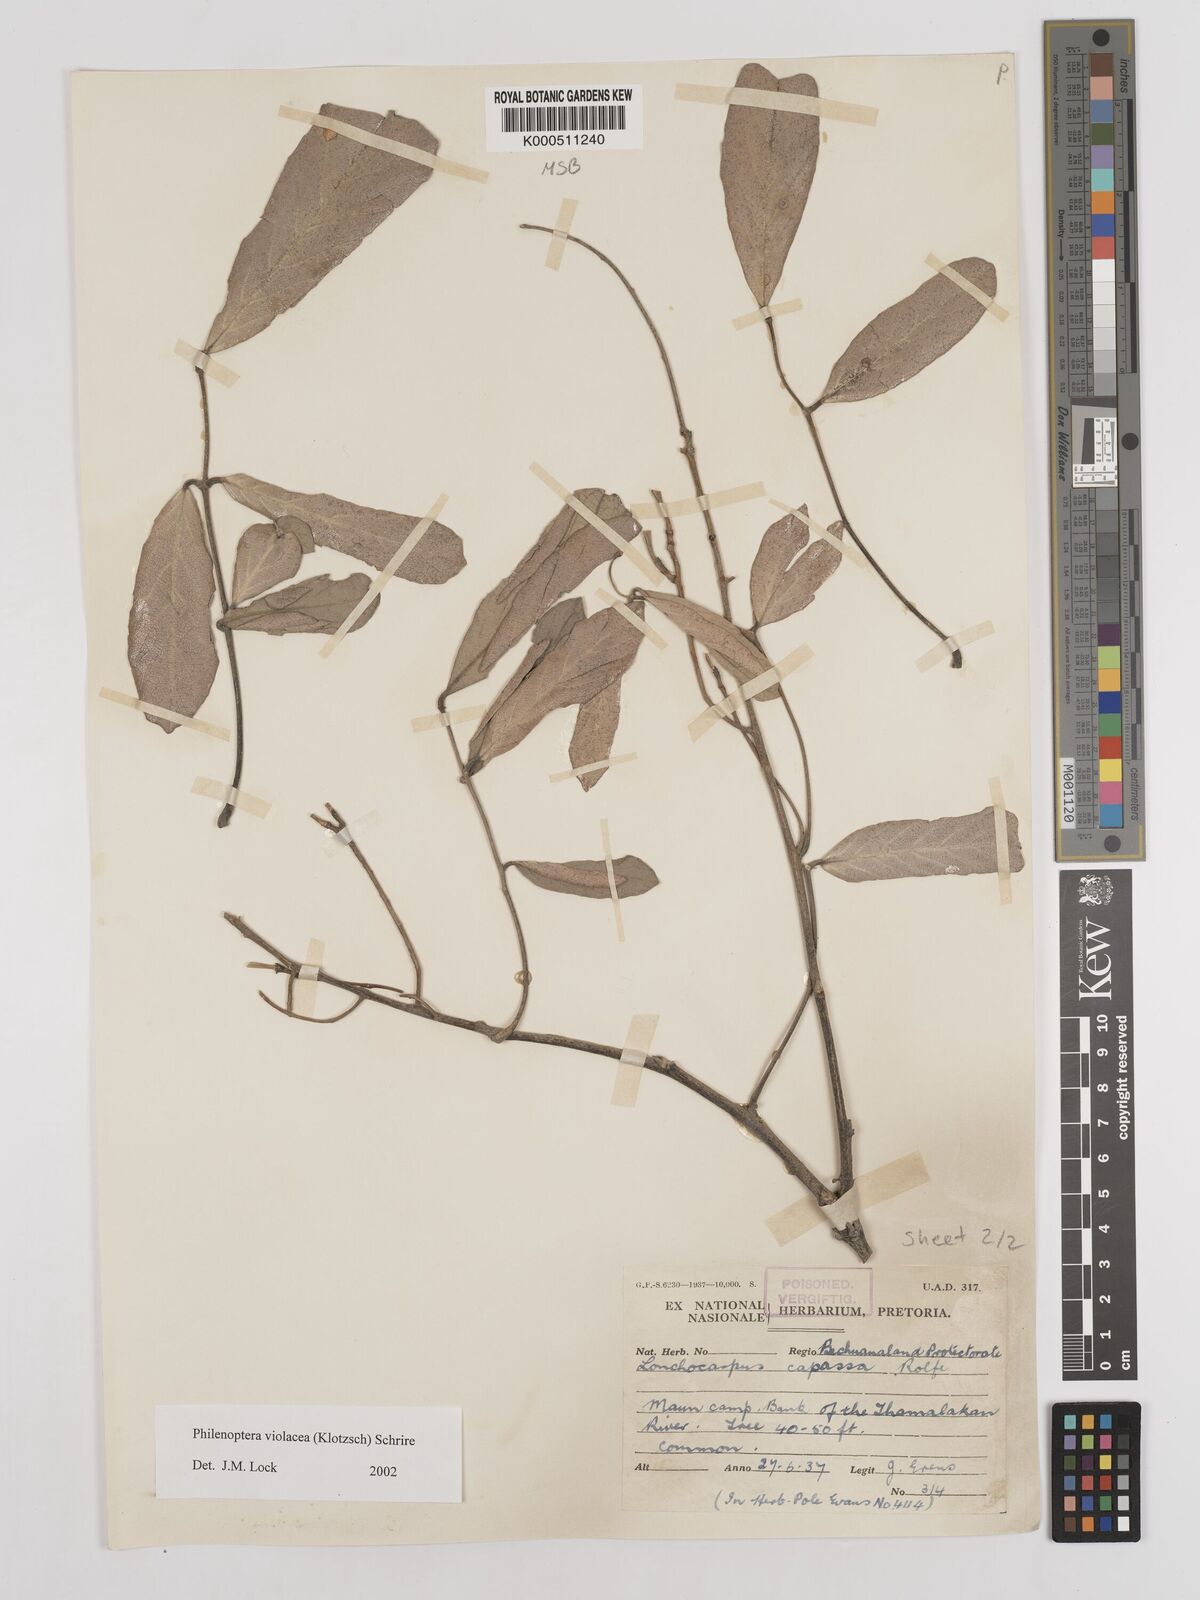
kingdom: Plantae
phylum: Tracheophyta
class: Magnoliopsida
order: Fabales
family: Fabaceae
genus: Philenoptera
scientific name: Philenoptera violacea
